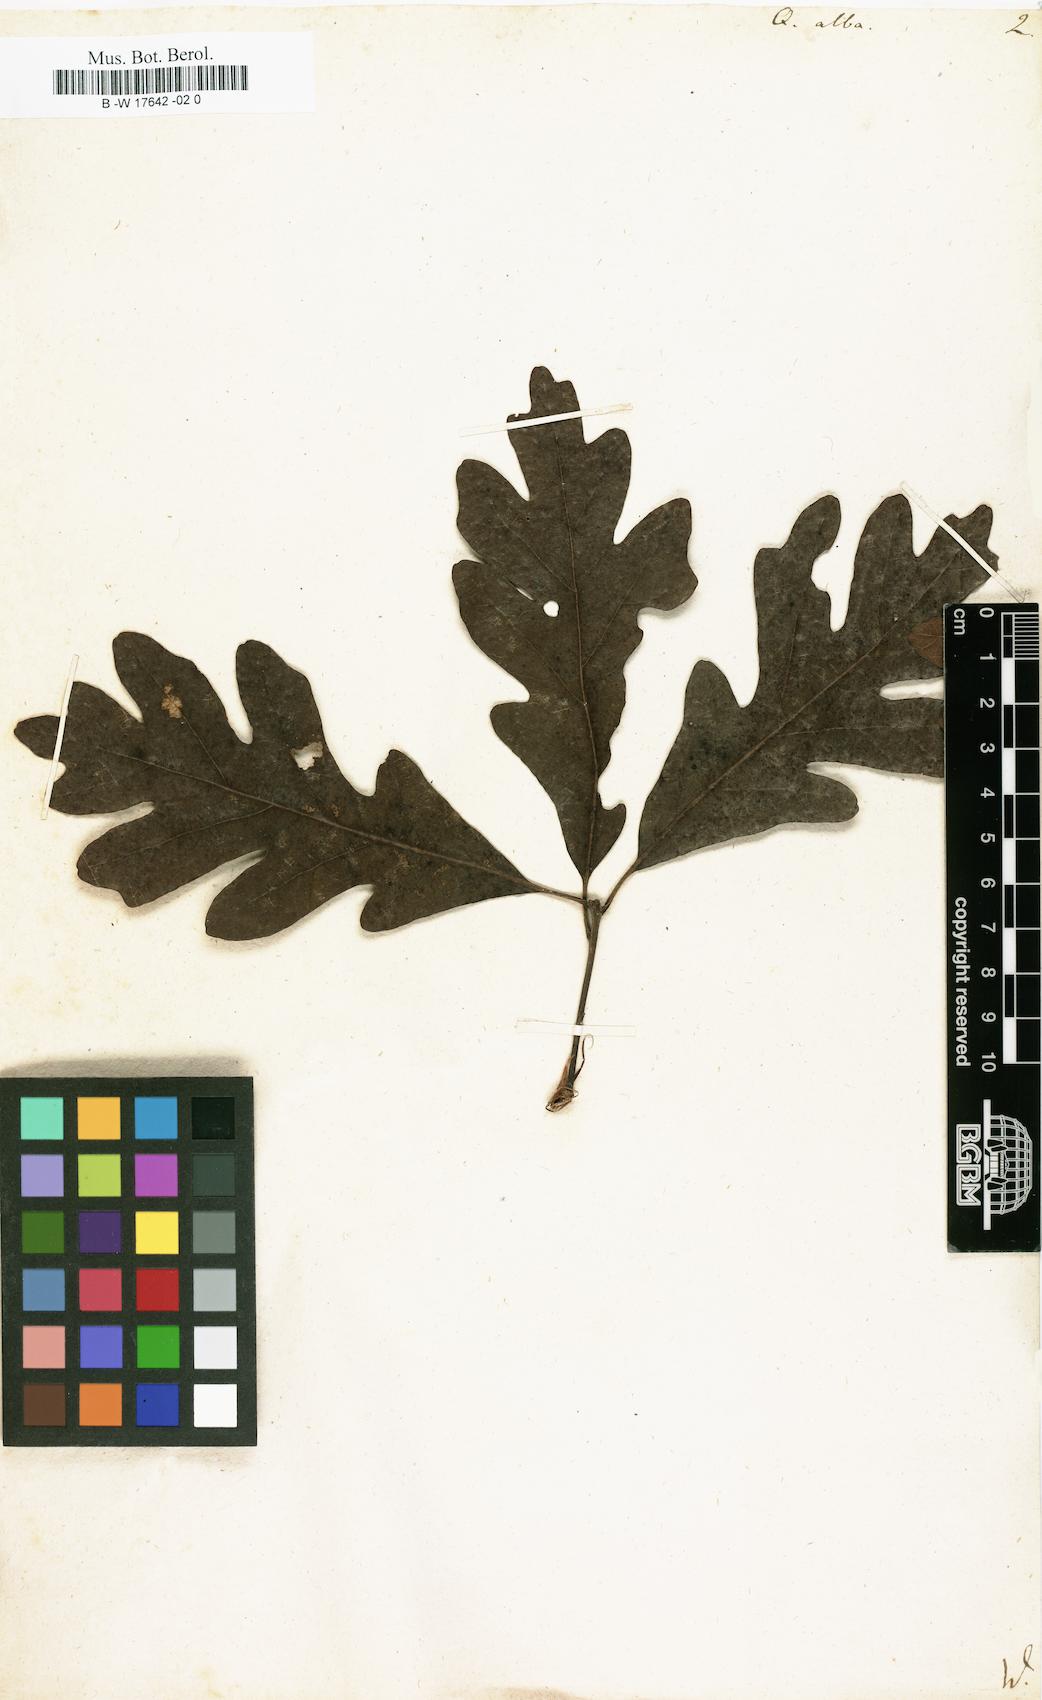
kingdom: Plantae
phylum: Tracheophyta
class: Magnoliopsida
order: Fagales
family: Fagaceae
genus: Quercus
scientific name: Quercus alba
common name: White oak
